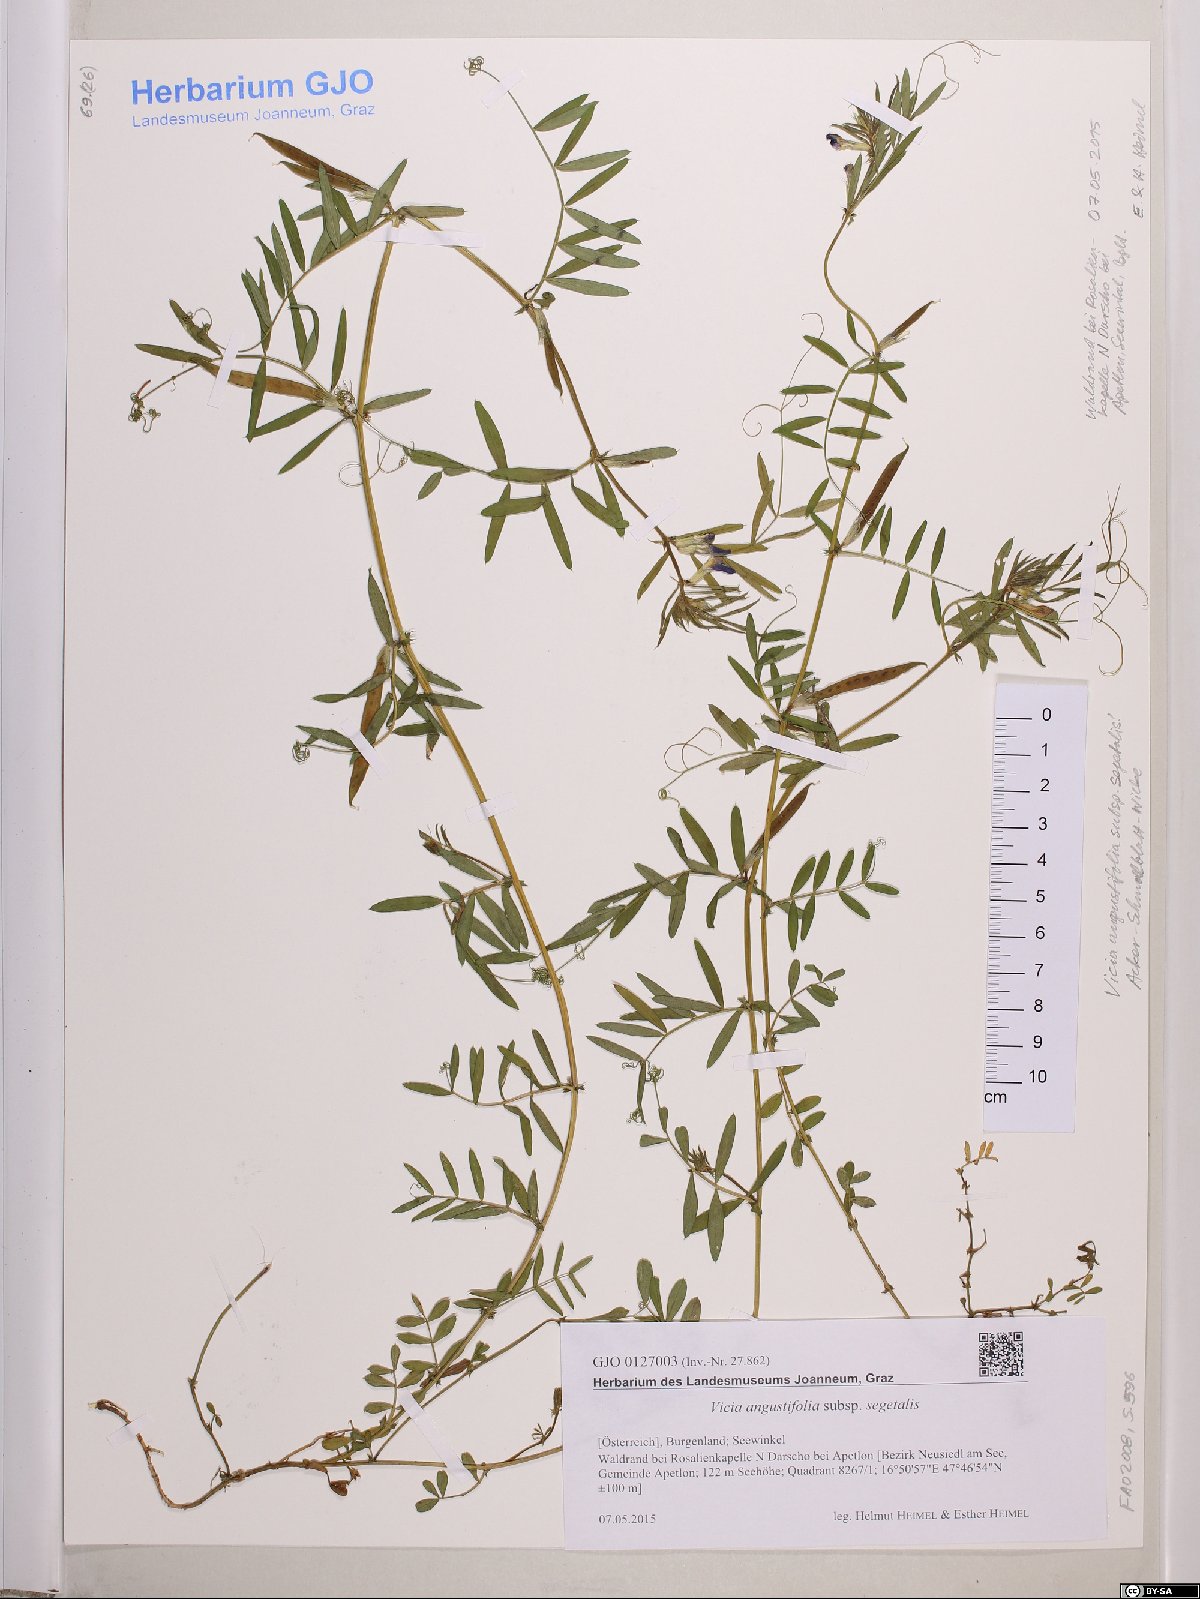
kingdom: Plantae
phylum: Tracheophyta
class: Magnoliopsida
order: Fabales
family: Fabaceae
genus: Vicia
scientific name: Vicia sativa
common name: Garden vetch
